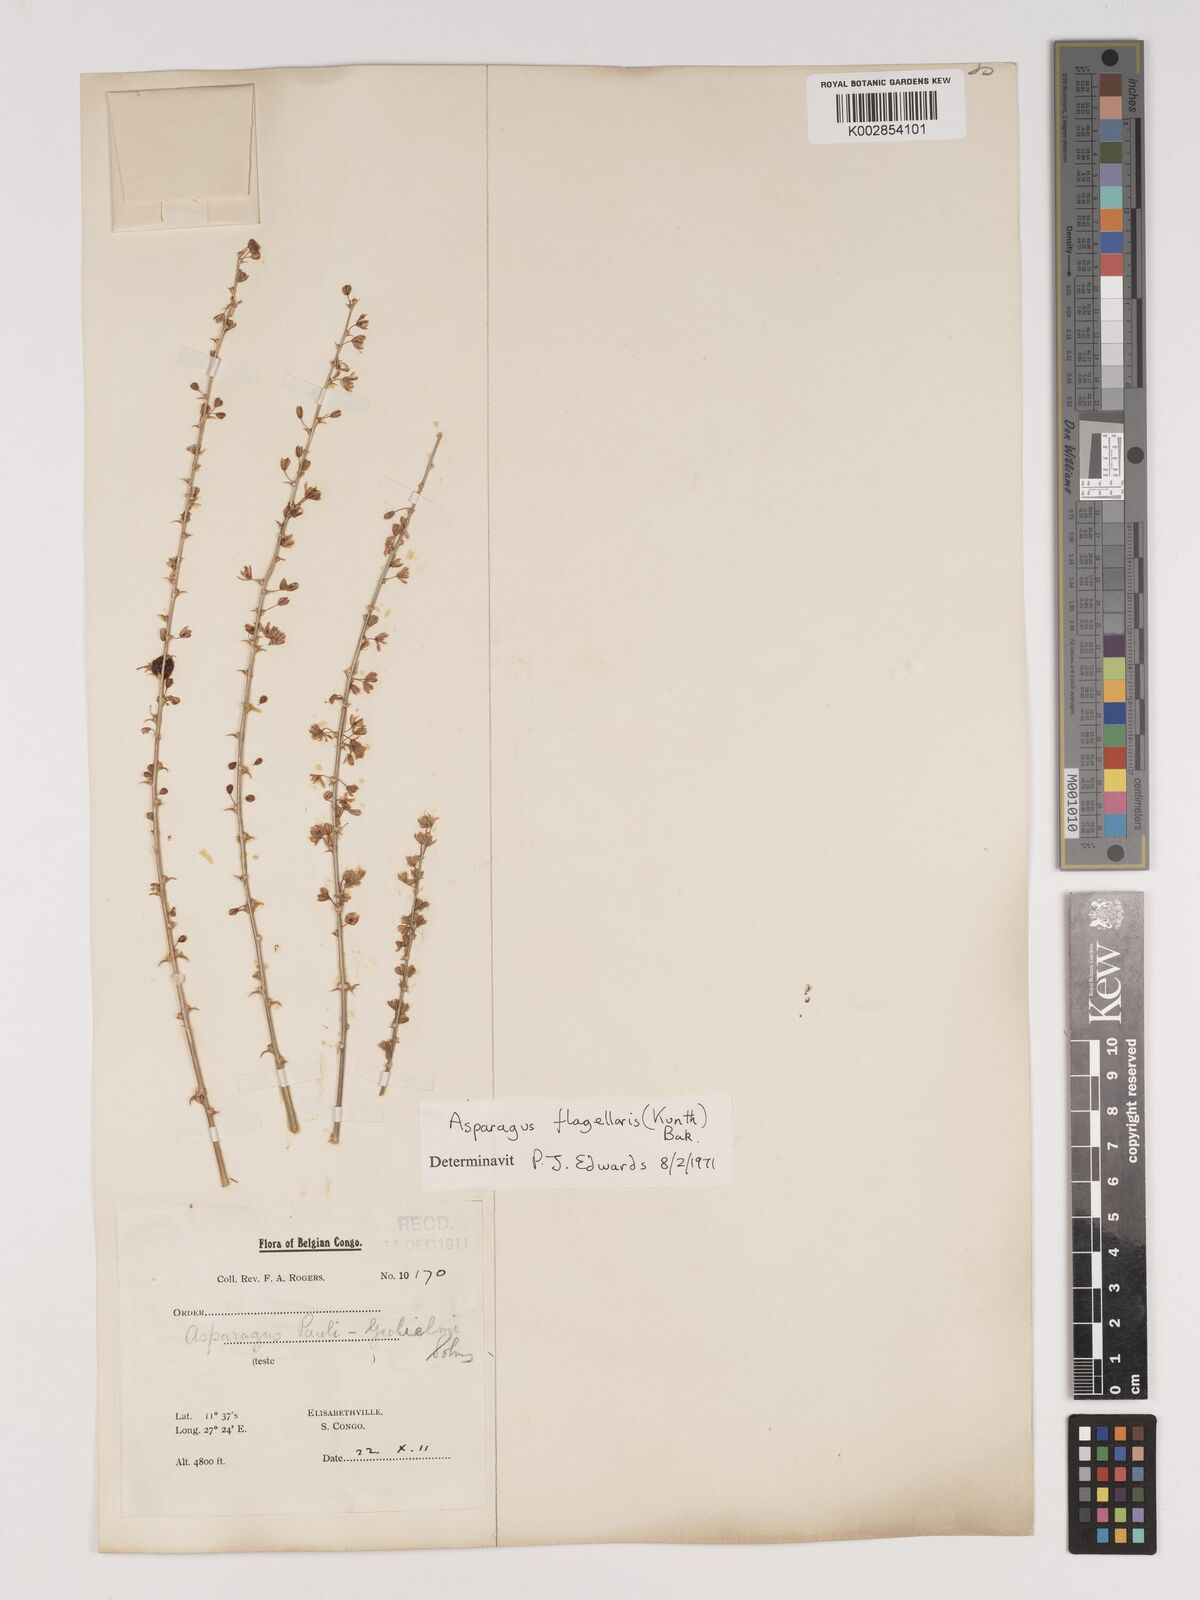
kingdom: Plantae
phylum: Tracheophyta
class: Liliopsida
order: Asparagales
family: Asparagaceae
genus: Asparagus
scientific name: Asparagus flagellaris
